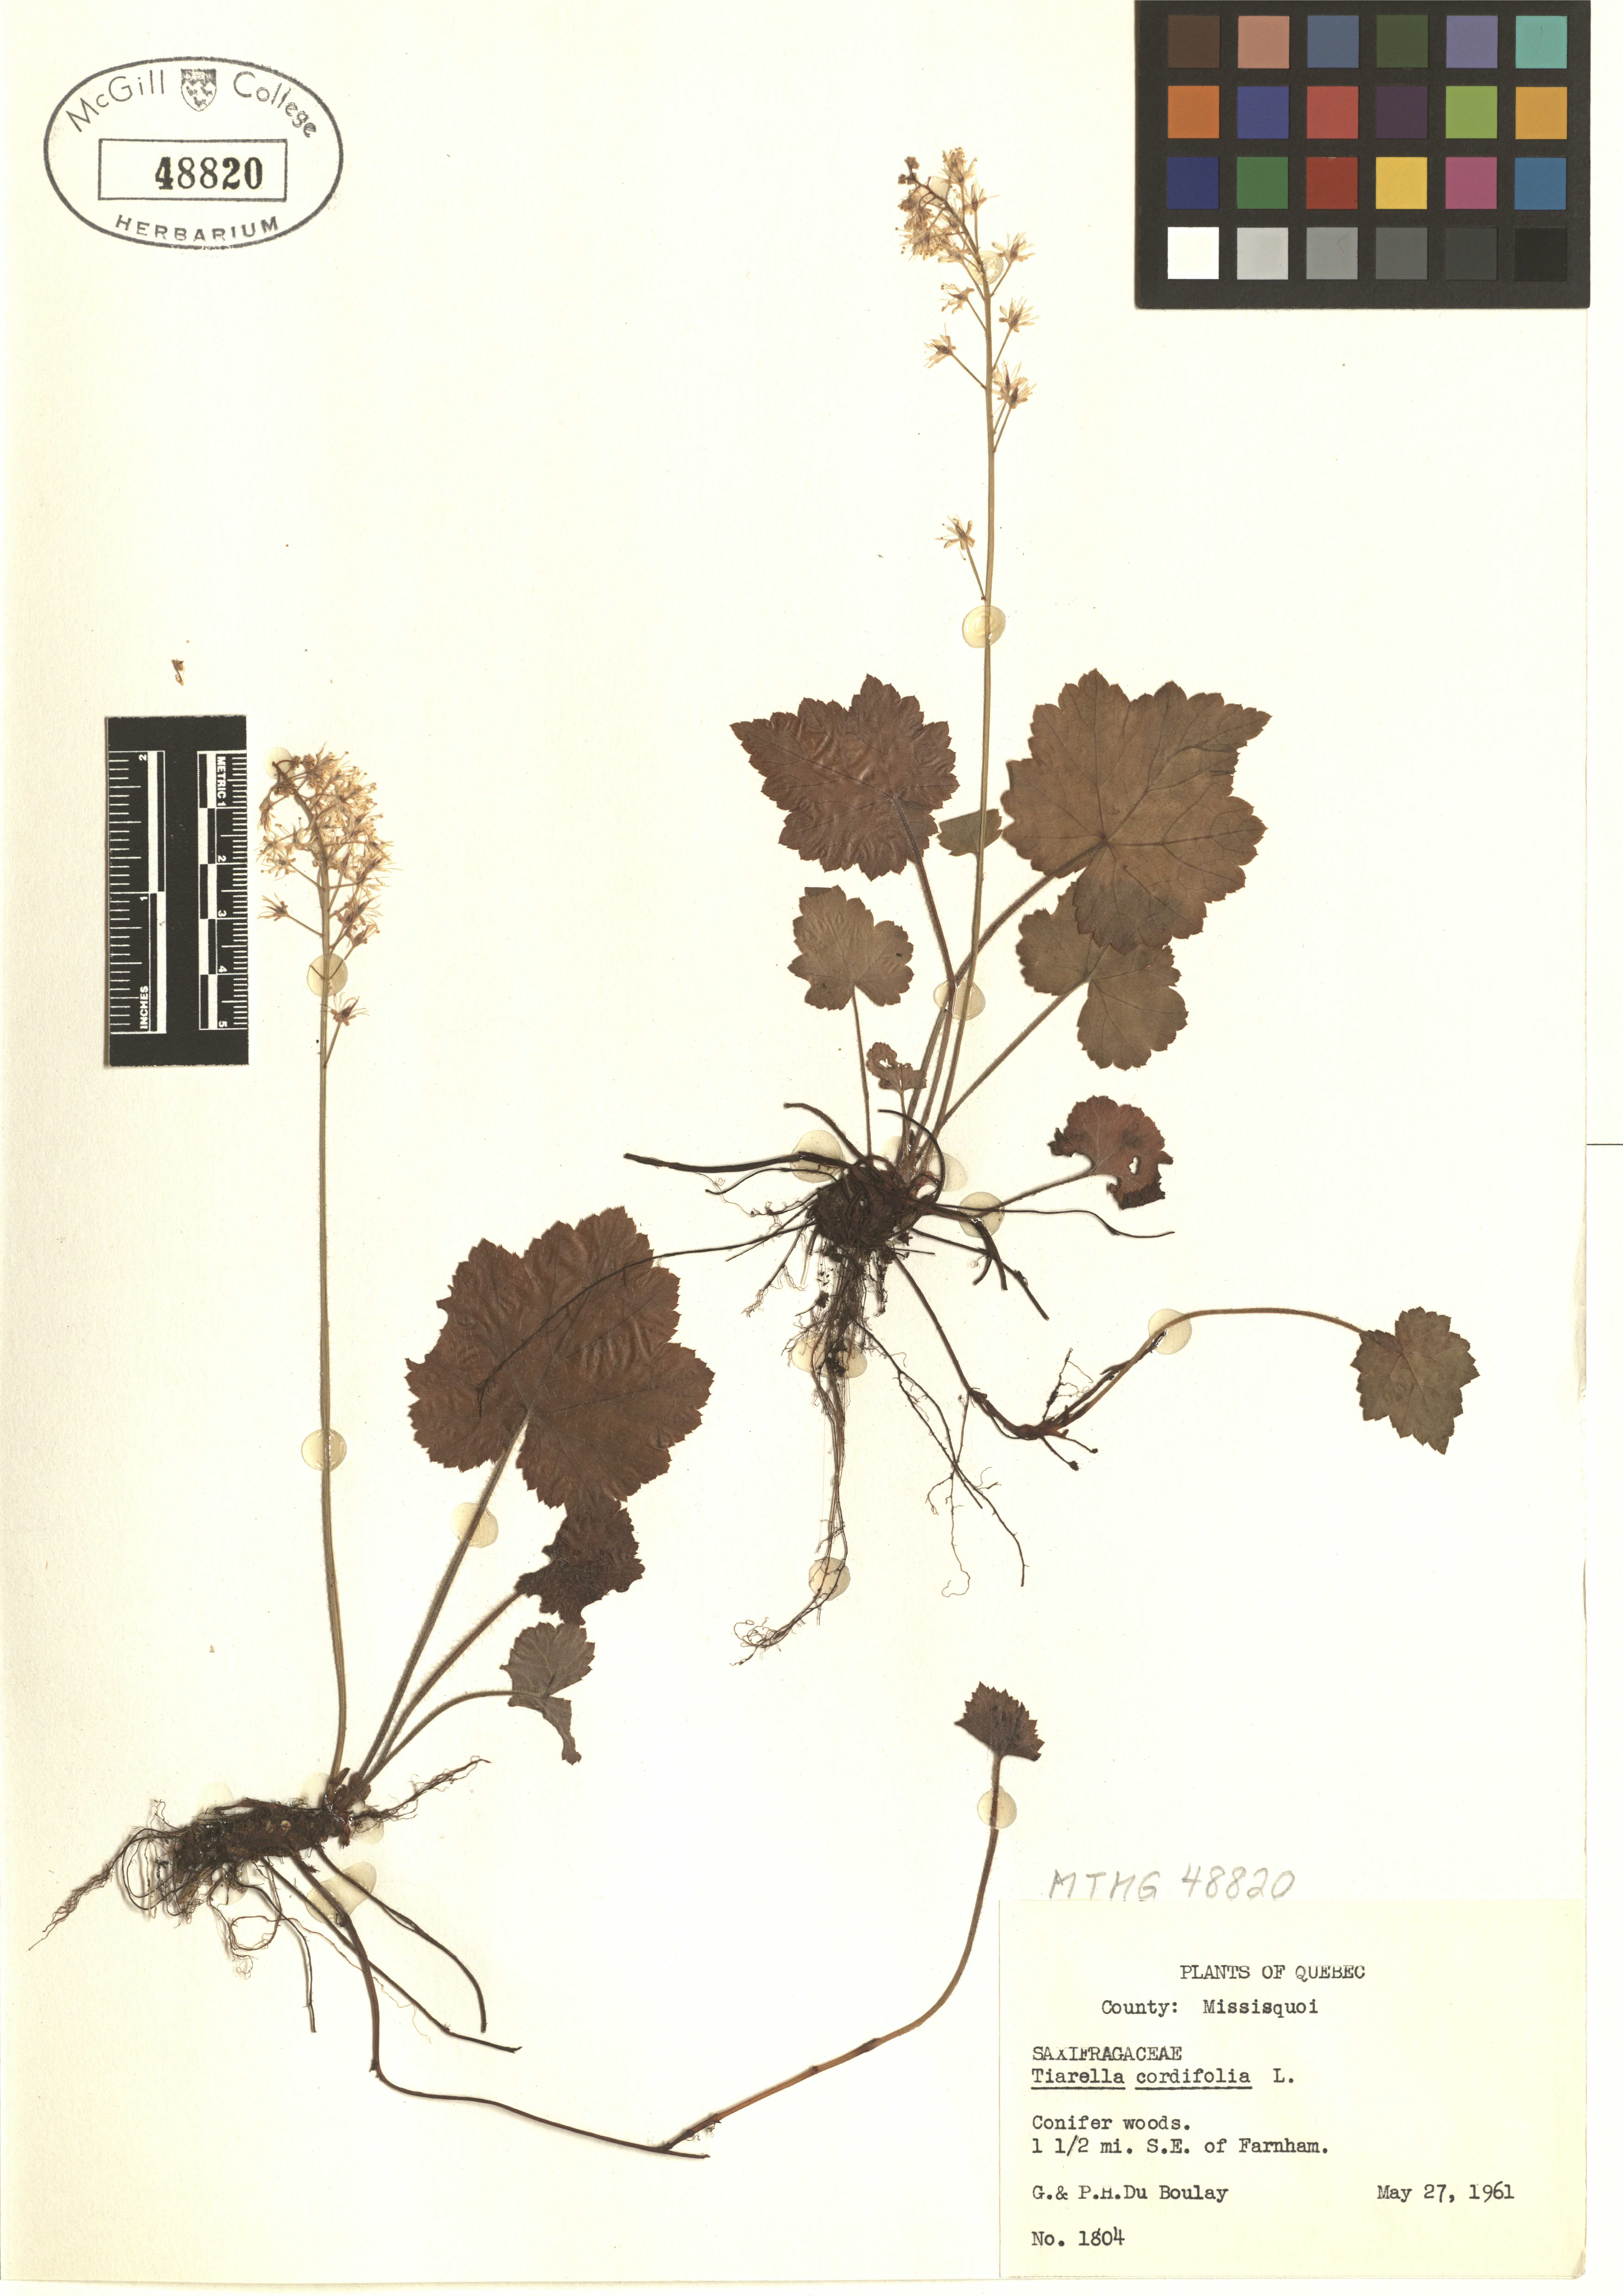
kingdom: Plantae
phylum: Tracheophyta
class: Magnoliopsida
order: Saxifragales
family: Saxifragaceae
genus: Tiarella
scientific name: Tiarella cordifolia
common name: Foamflower
